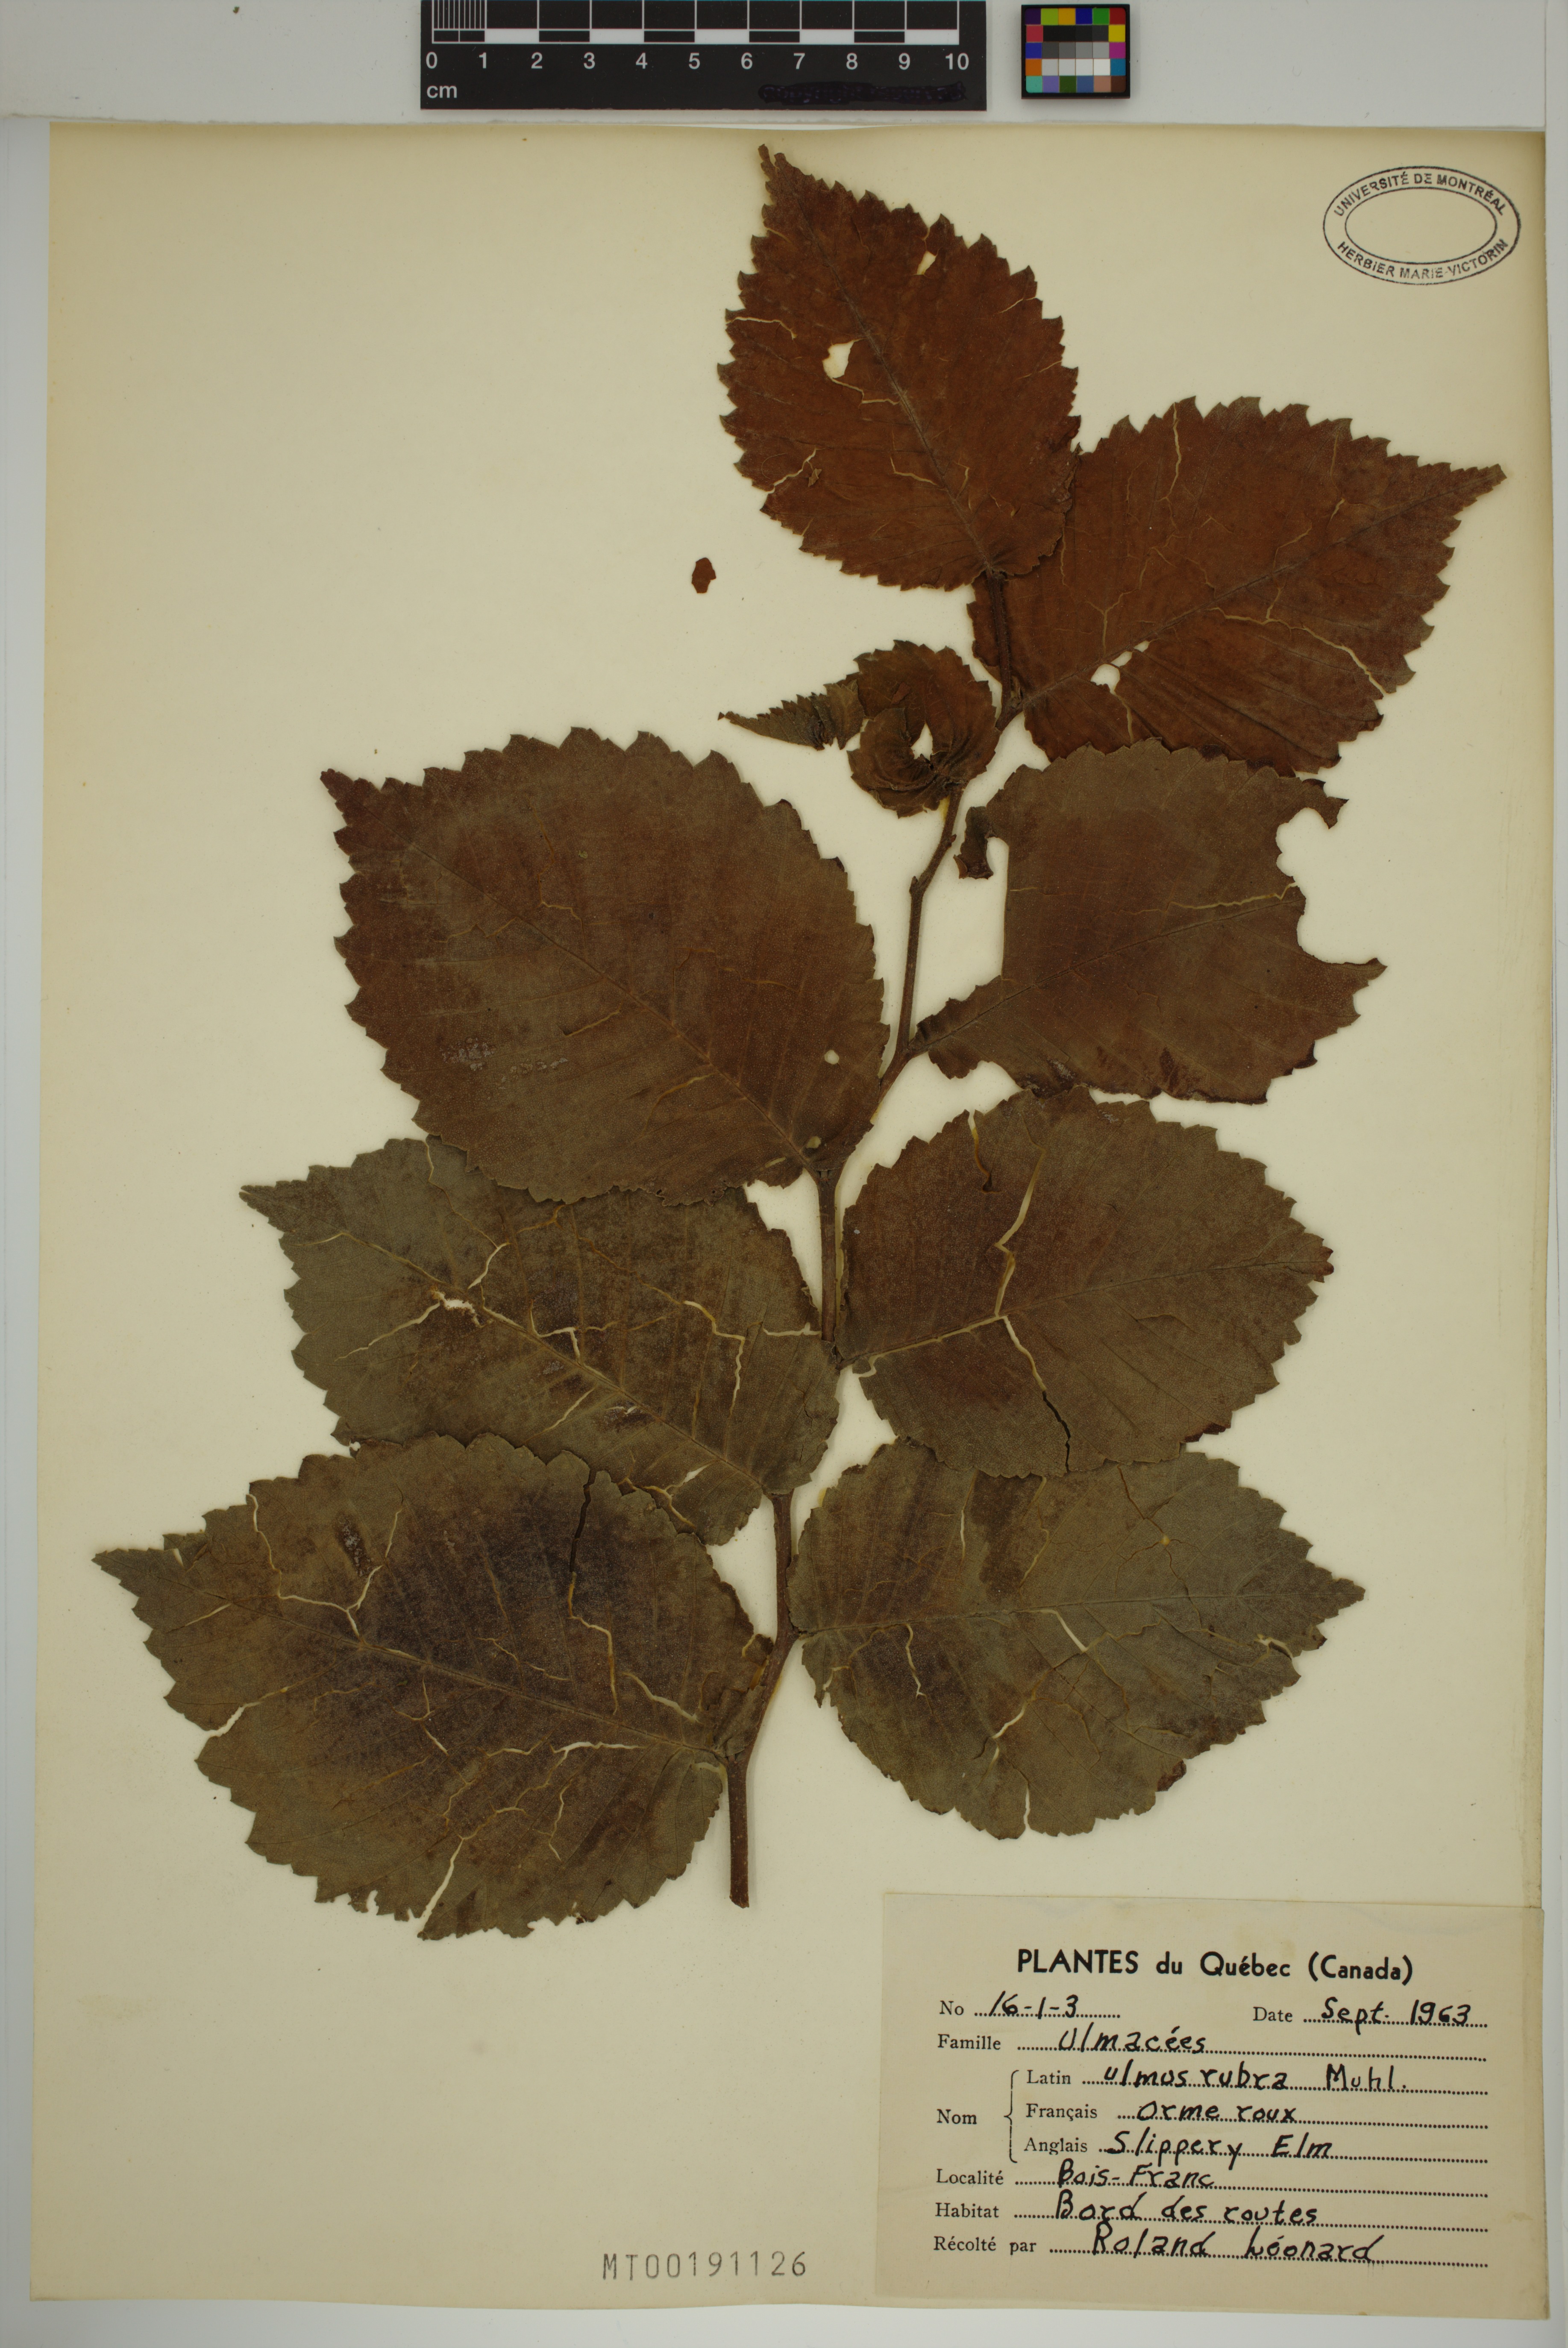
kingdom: Plantae
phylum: Tracheophyta
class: Magnoliopsida
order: Rosales
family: Ulmaceae
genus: Ulmus
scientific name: Ulmus rubra
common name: Slippery elm
